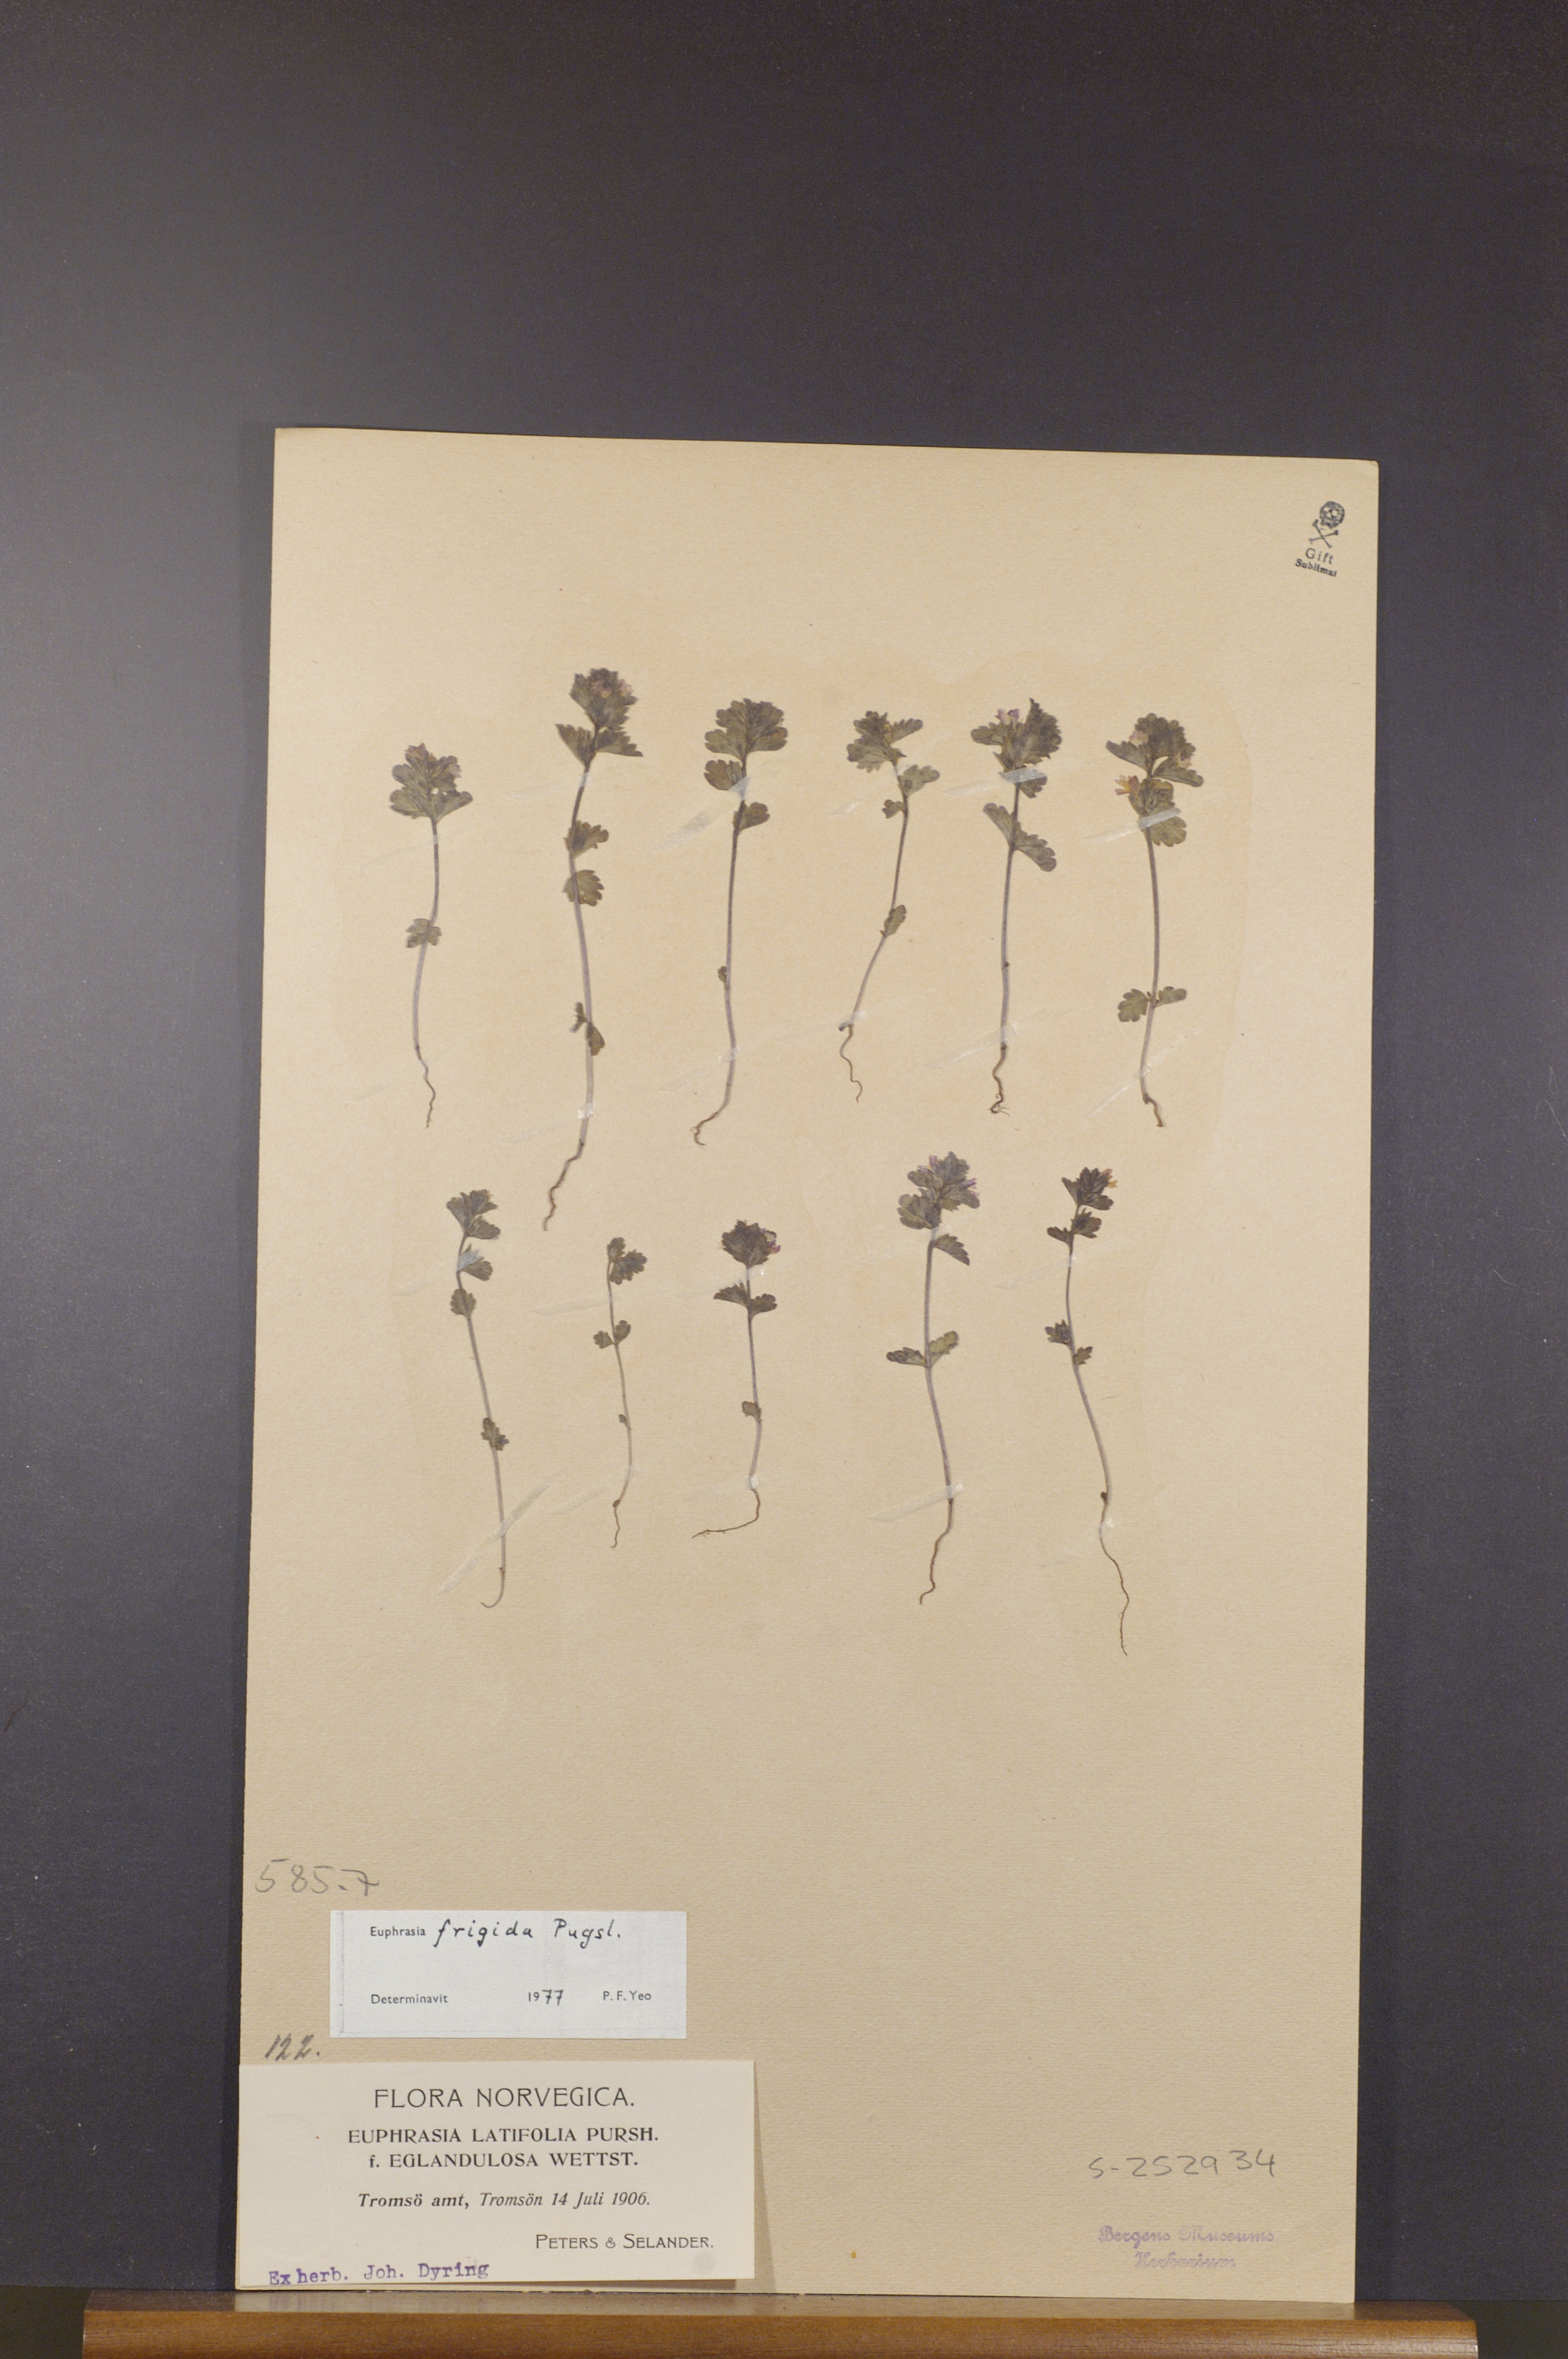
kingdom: Plantae
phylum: Tracheophyta
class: Magnoliopsida
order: Lamiales
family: Orobanchaceae
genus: Euphrasia
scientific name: Euphrasia frigida
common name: An eyebright
